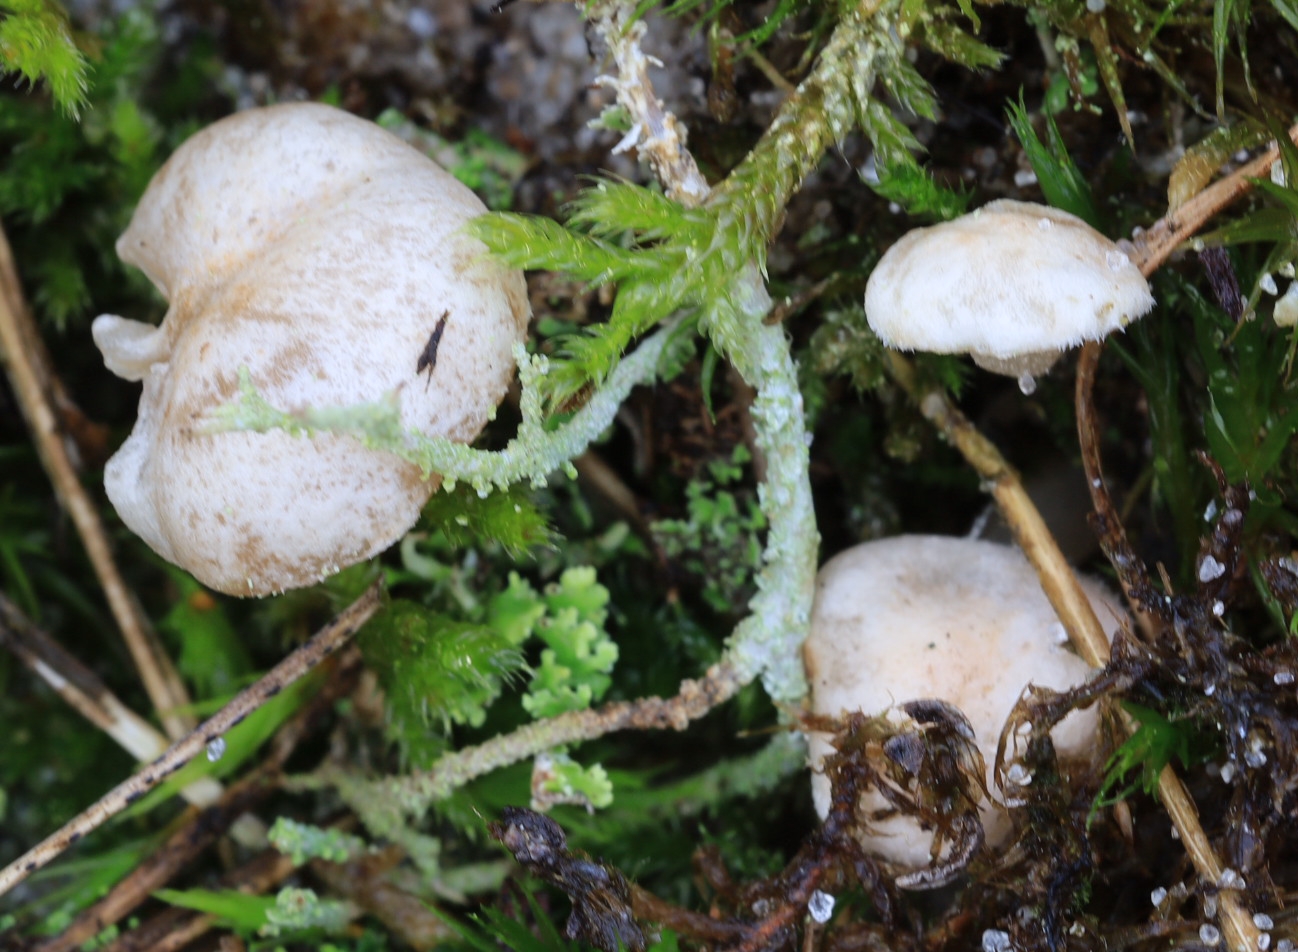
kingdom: Fungi
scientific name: Fungi
